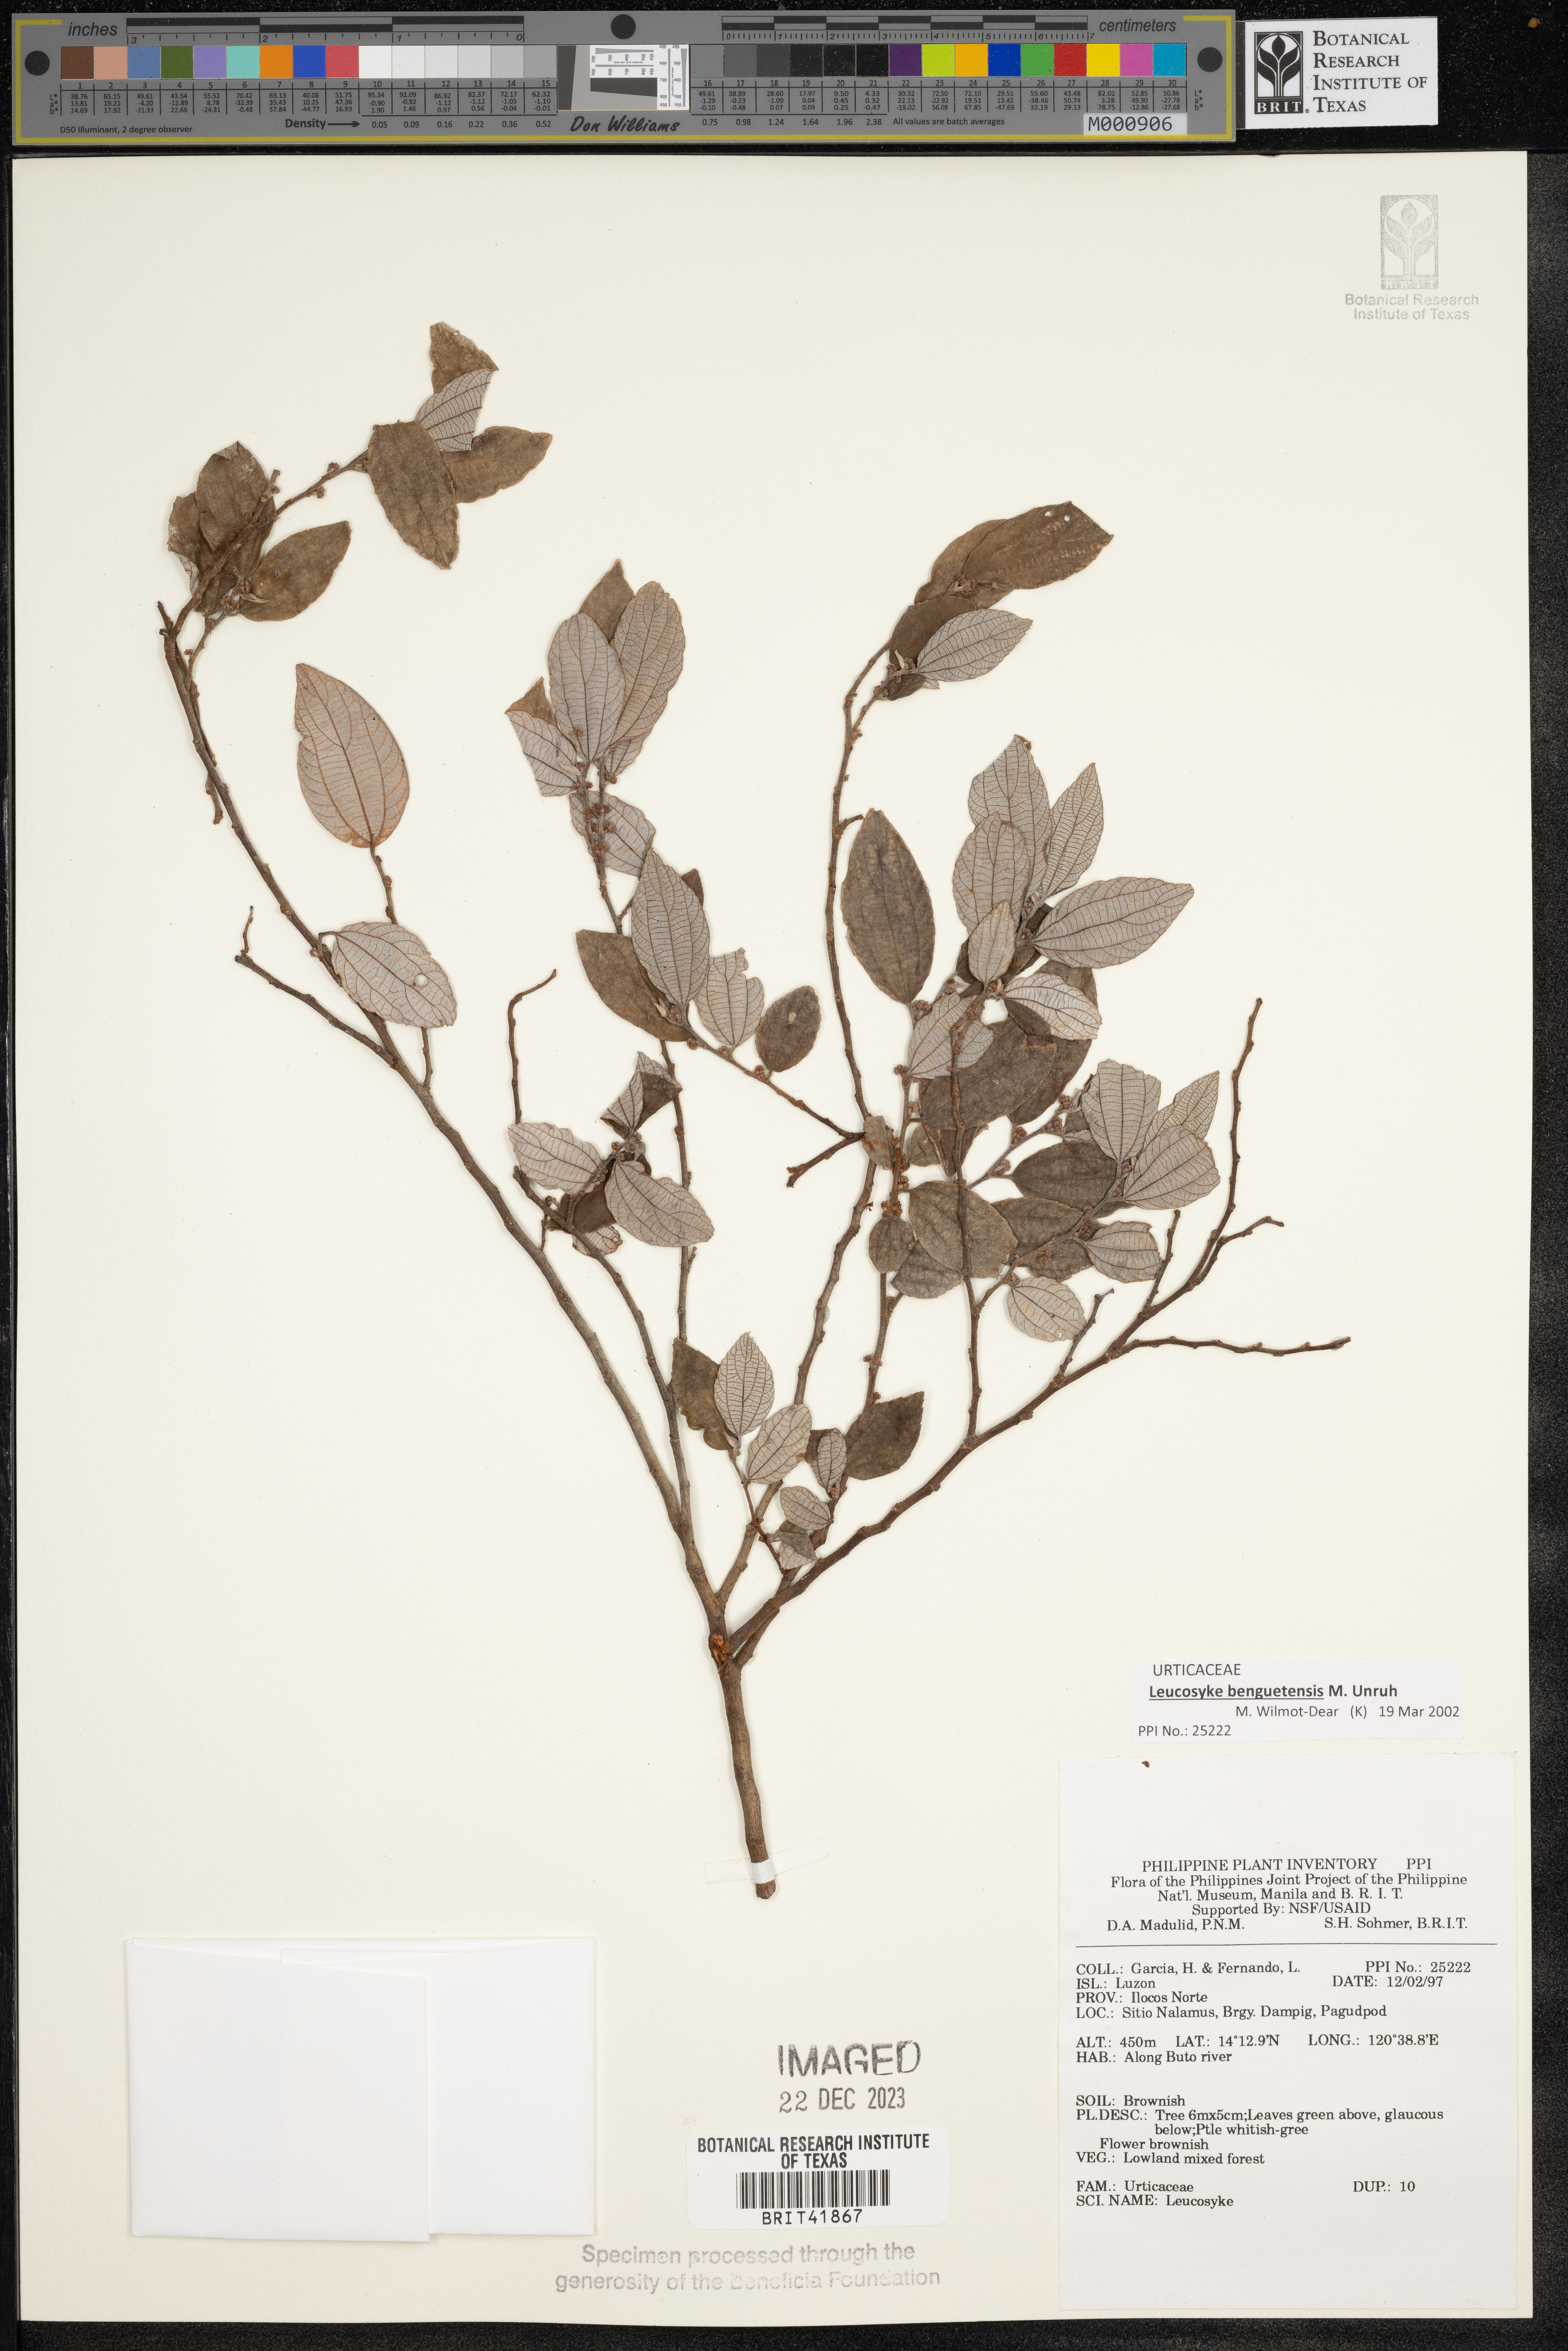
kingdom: Plantae
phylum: Tracheophyta
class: Magnoliopsida
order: Rosales
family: Urticaceae
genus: Leucosyke
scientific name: Leucosyke
